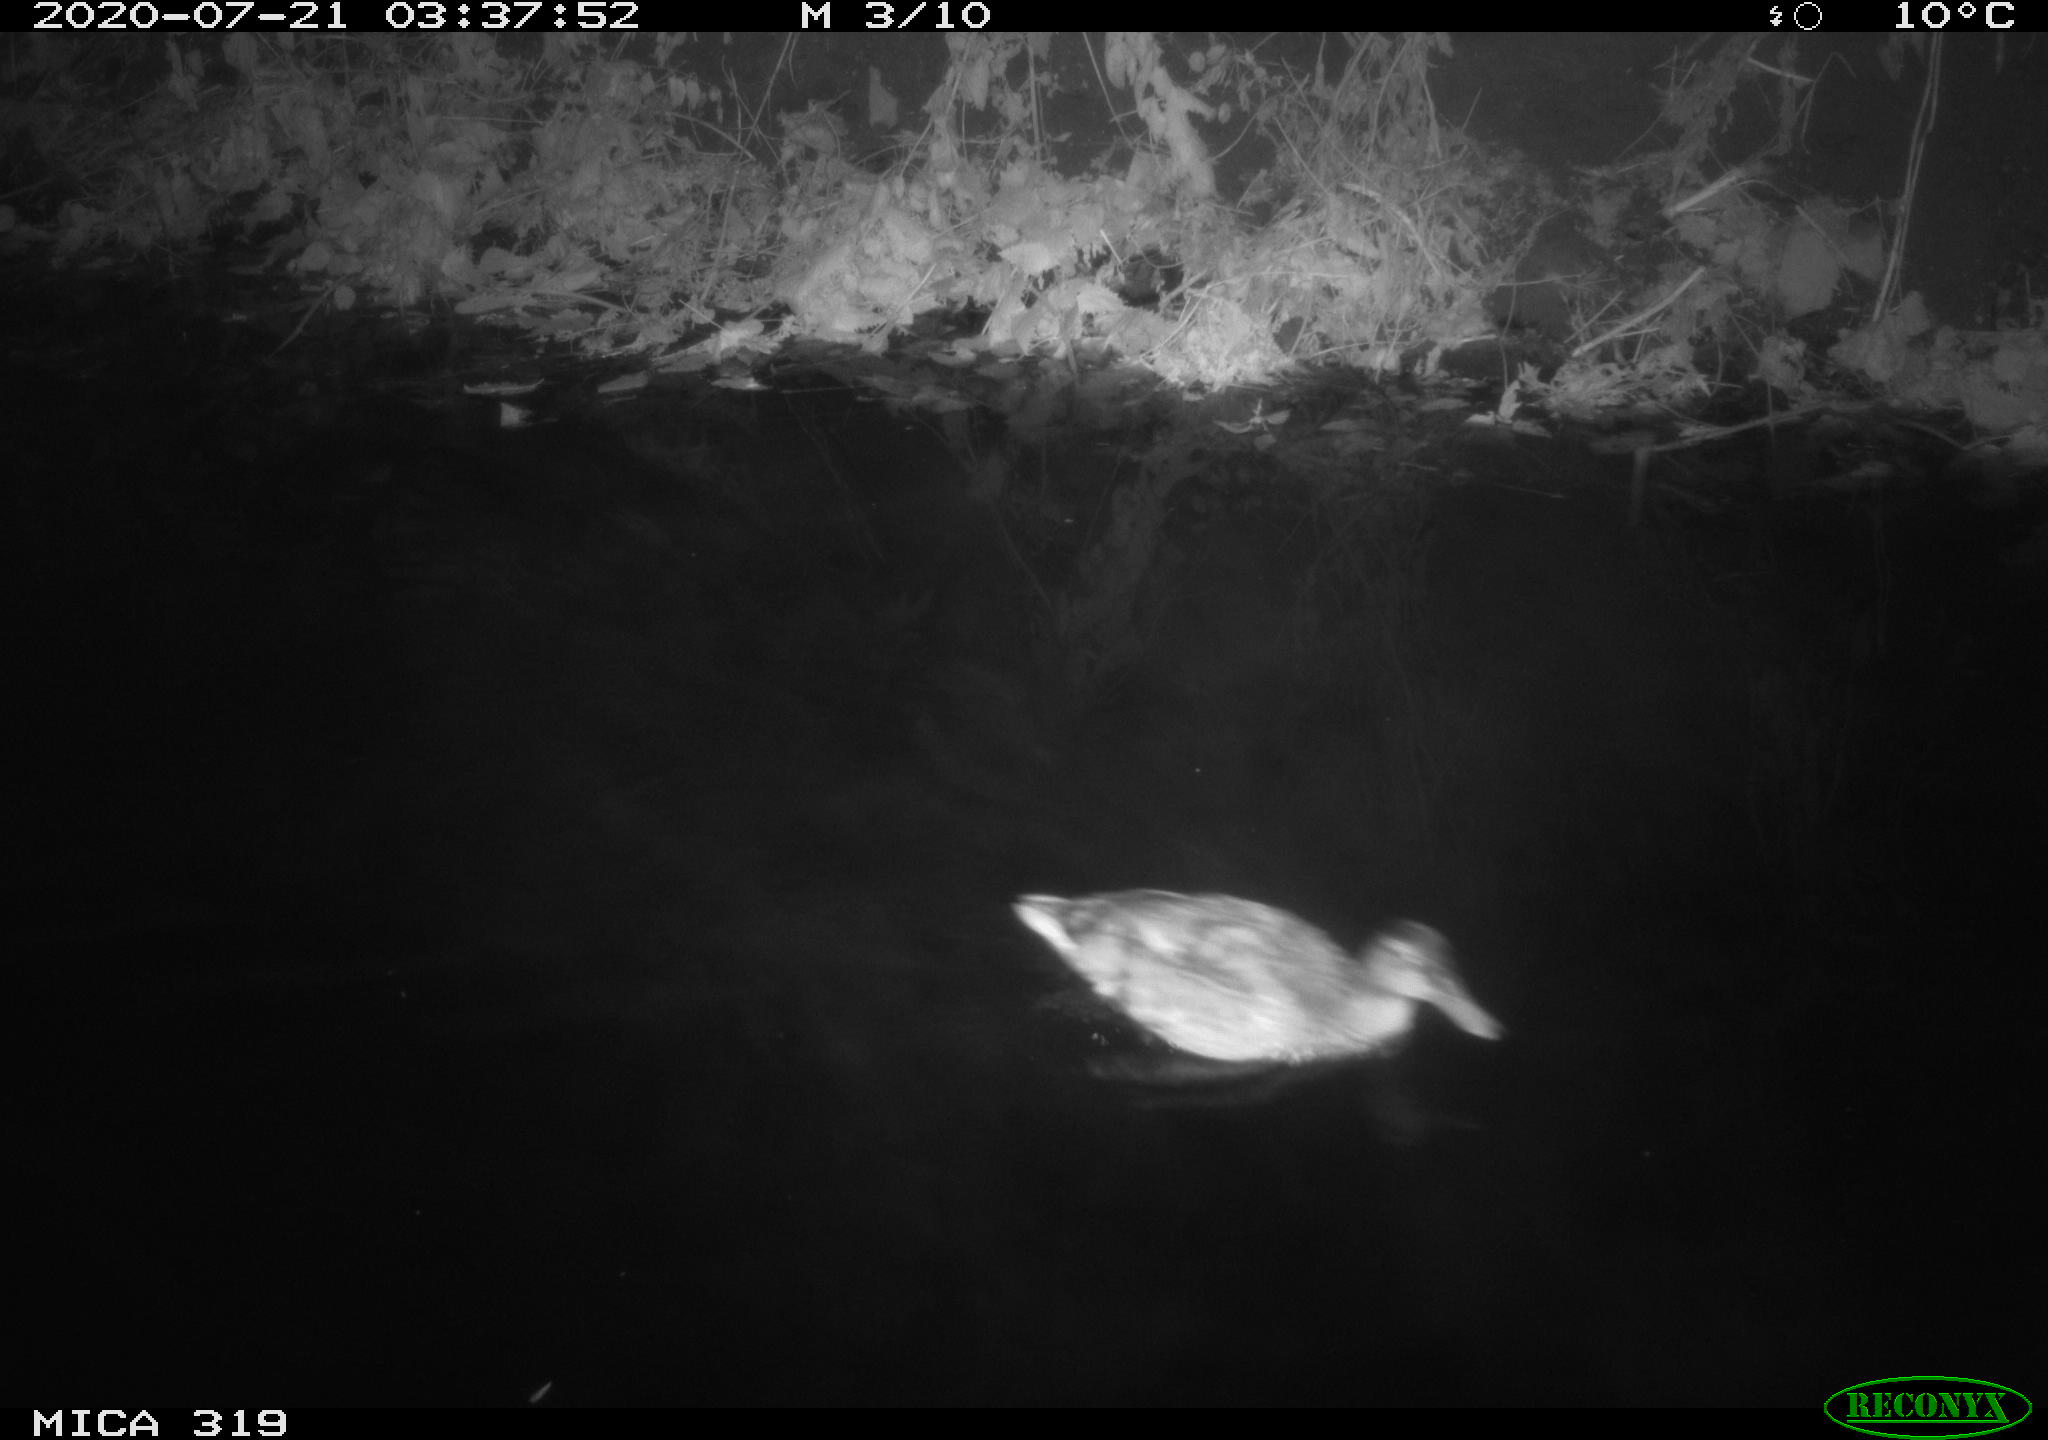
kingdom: Animalia
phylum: Chordata
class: Aves
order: Anseriformes
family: Anatidae
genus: Anas
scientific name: Anas platyrhynchos
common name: Mallard
